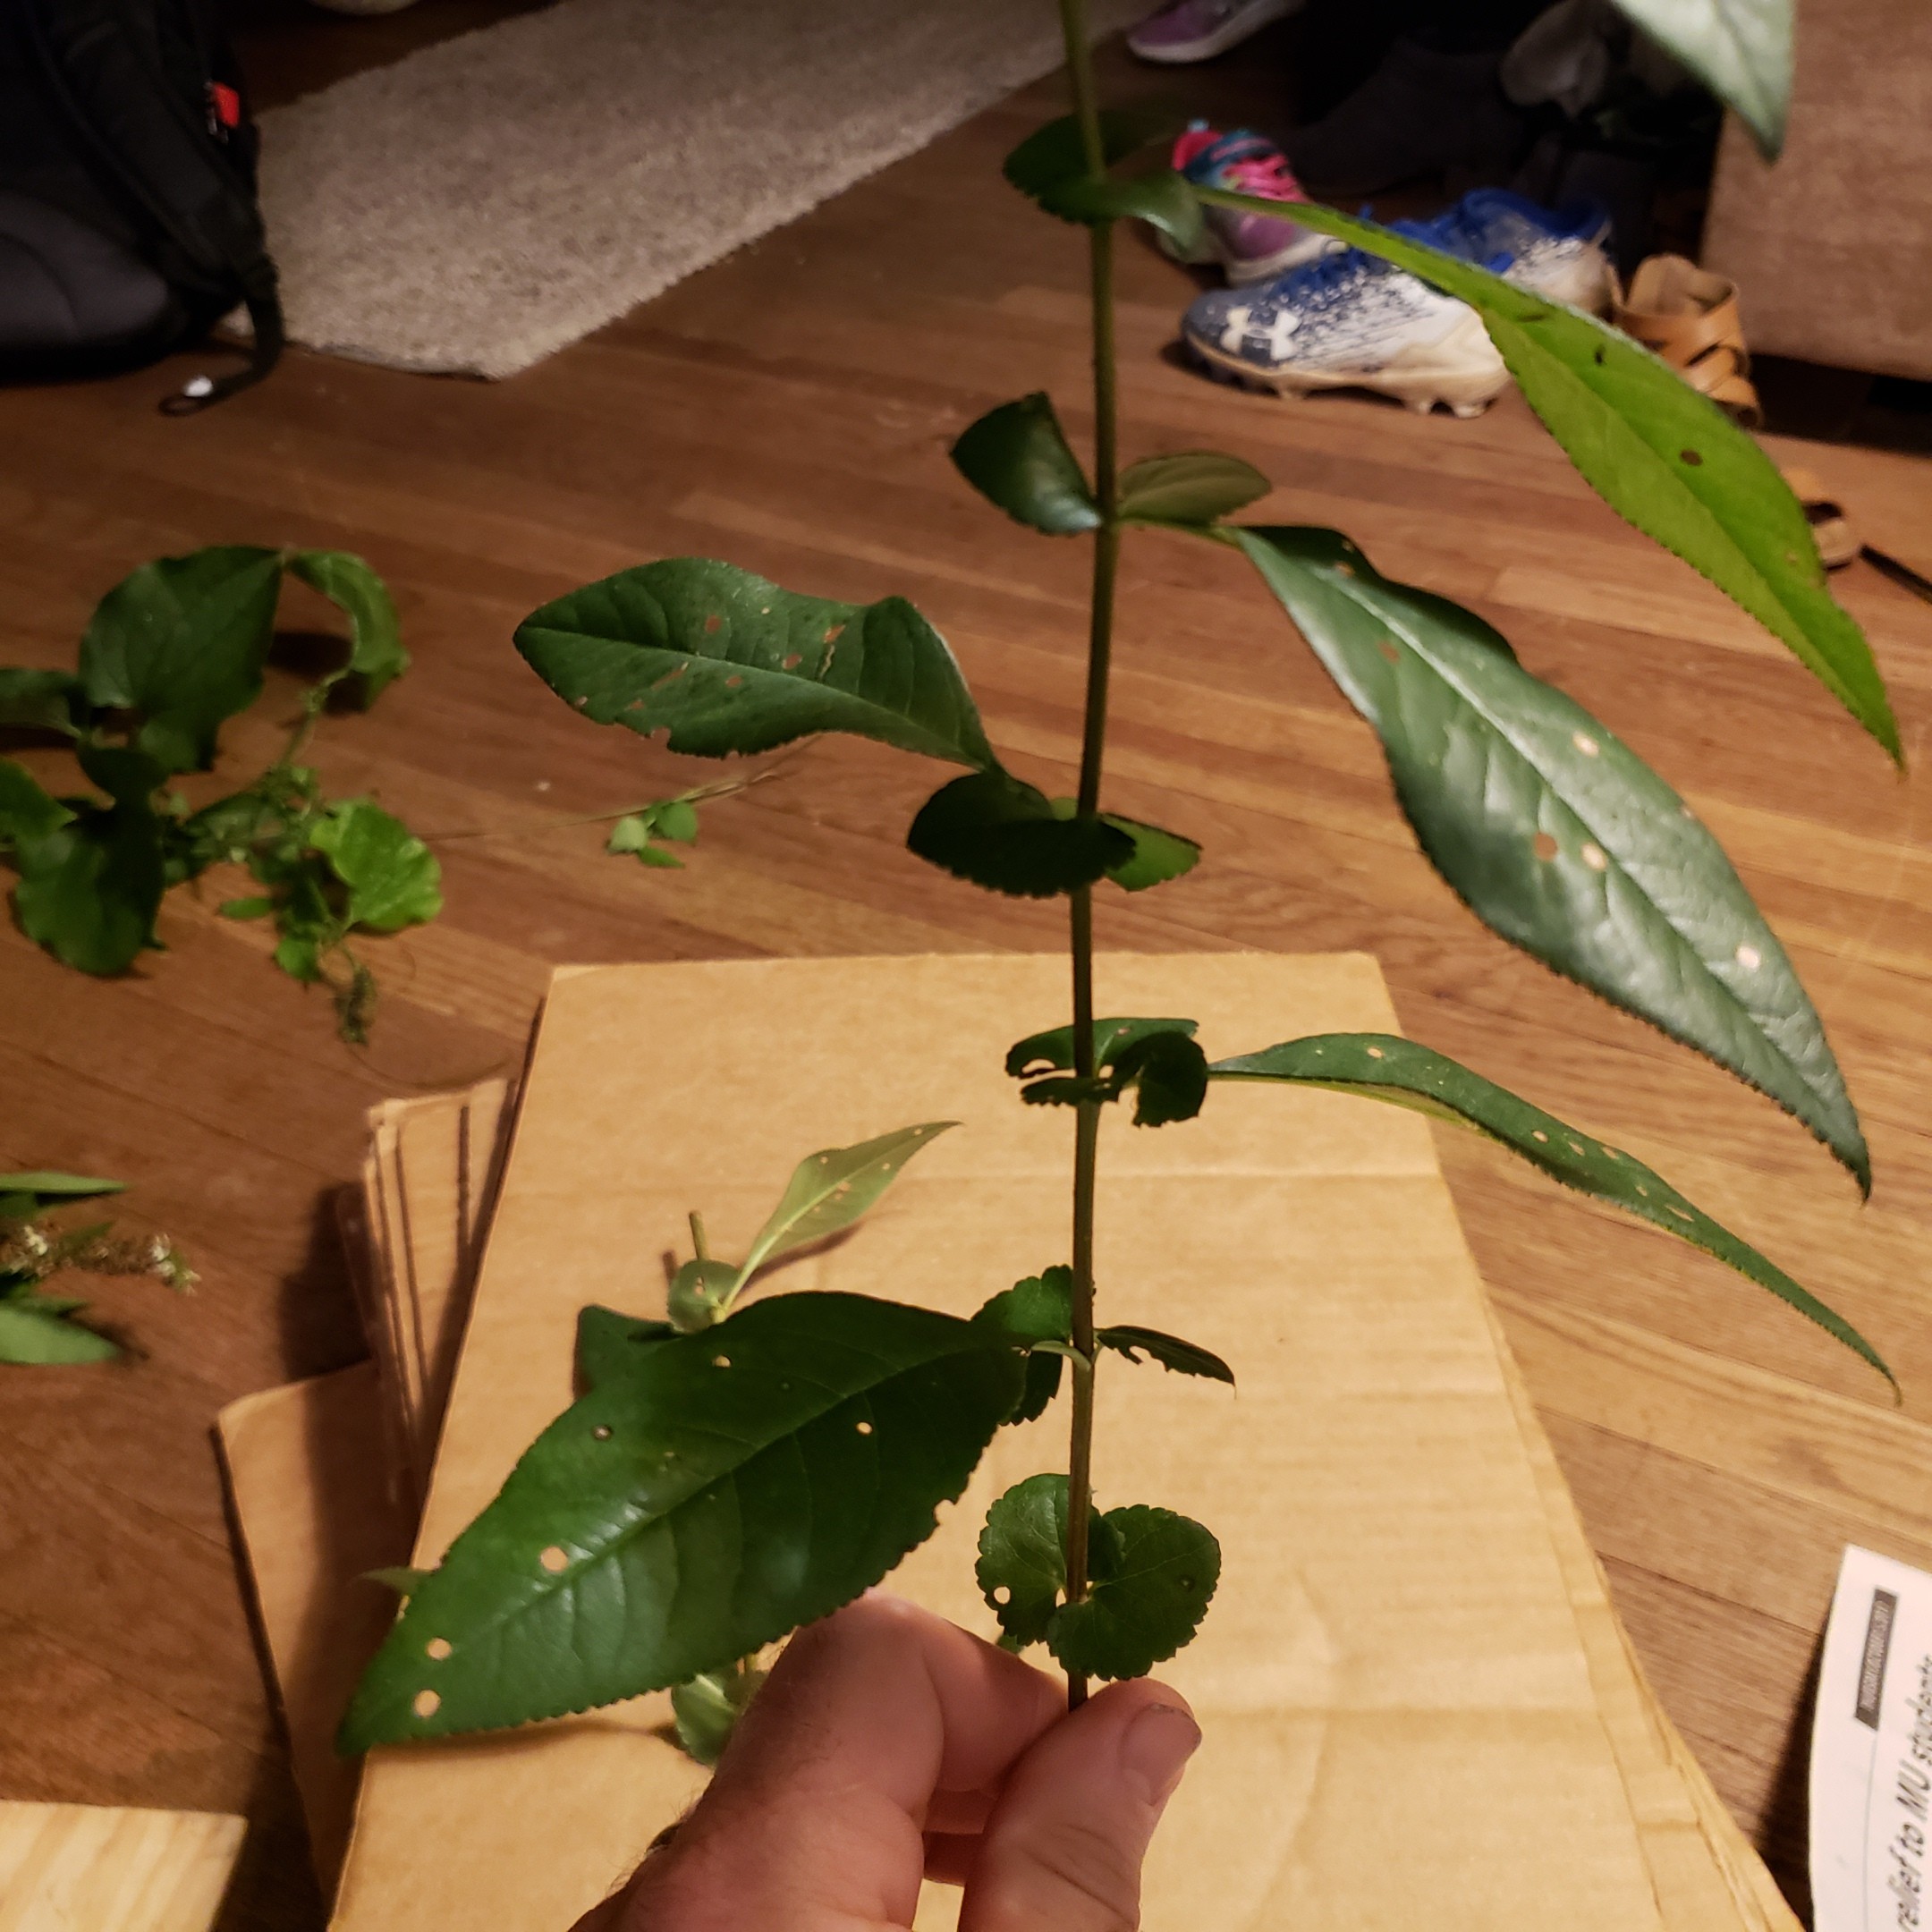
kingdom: Plantae
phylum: Tracheophyta
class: Magnoliopsida
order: Rosales
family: Rosaceae
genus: Chaenomeles
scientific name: Chaenomeles speciosa
